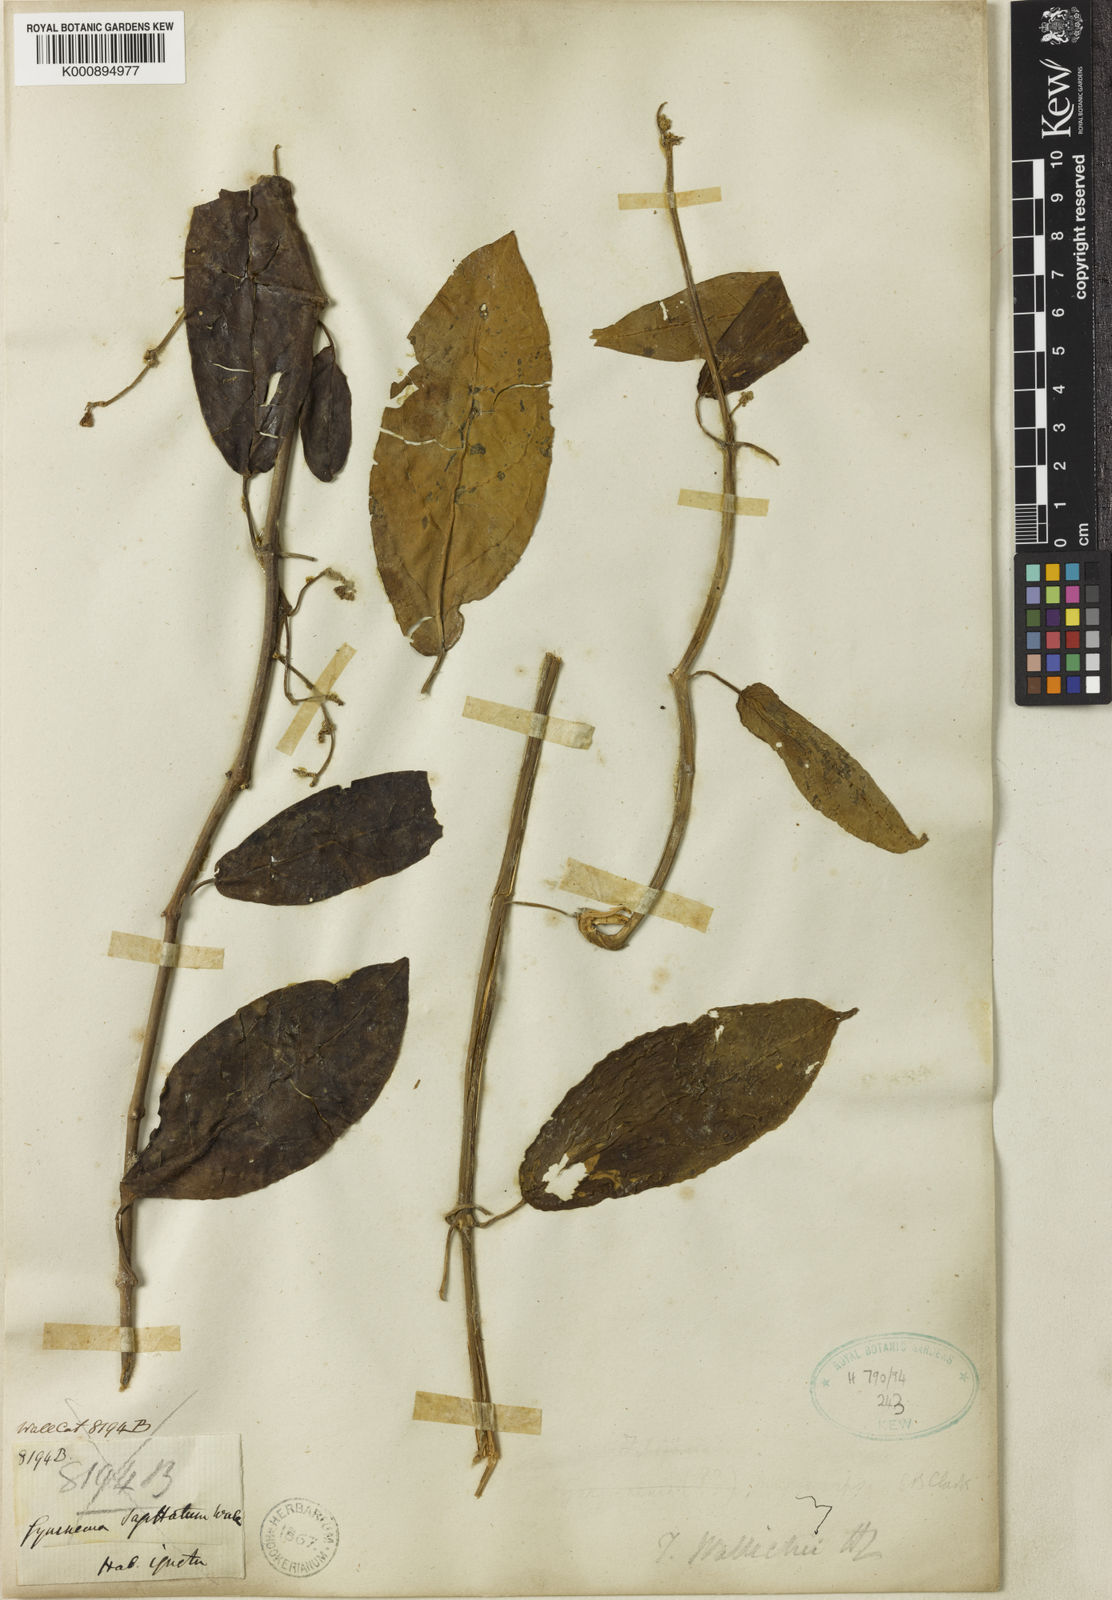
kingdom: Plantae
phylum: Tracheophyta
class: Magnoliopsida
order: Gentianales
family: Apocynaceae
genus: Vincetoxicum
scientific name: Vincetoxicum ventricosum
